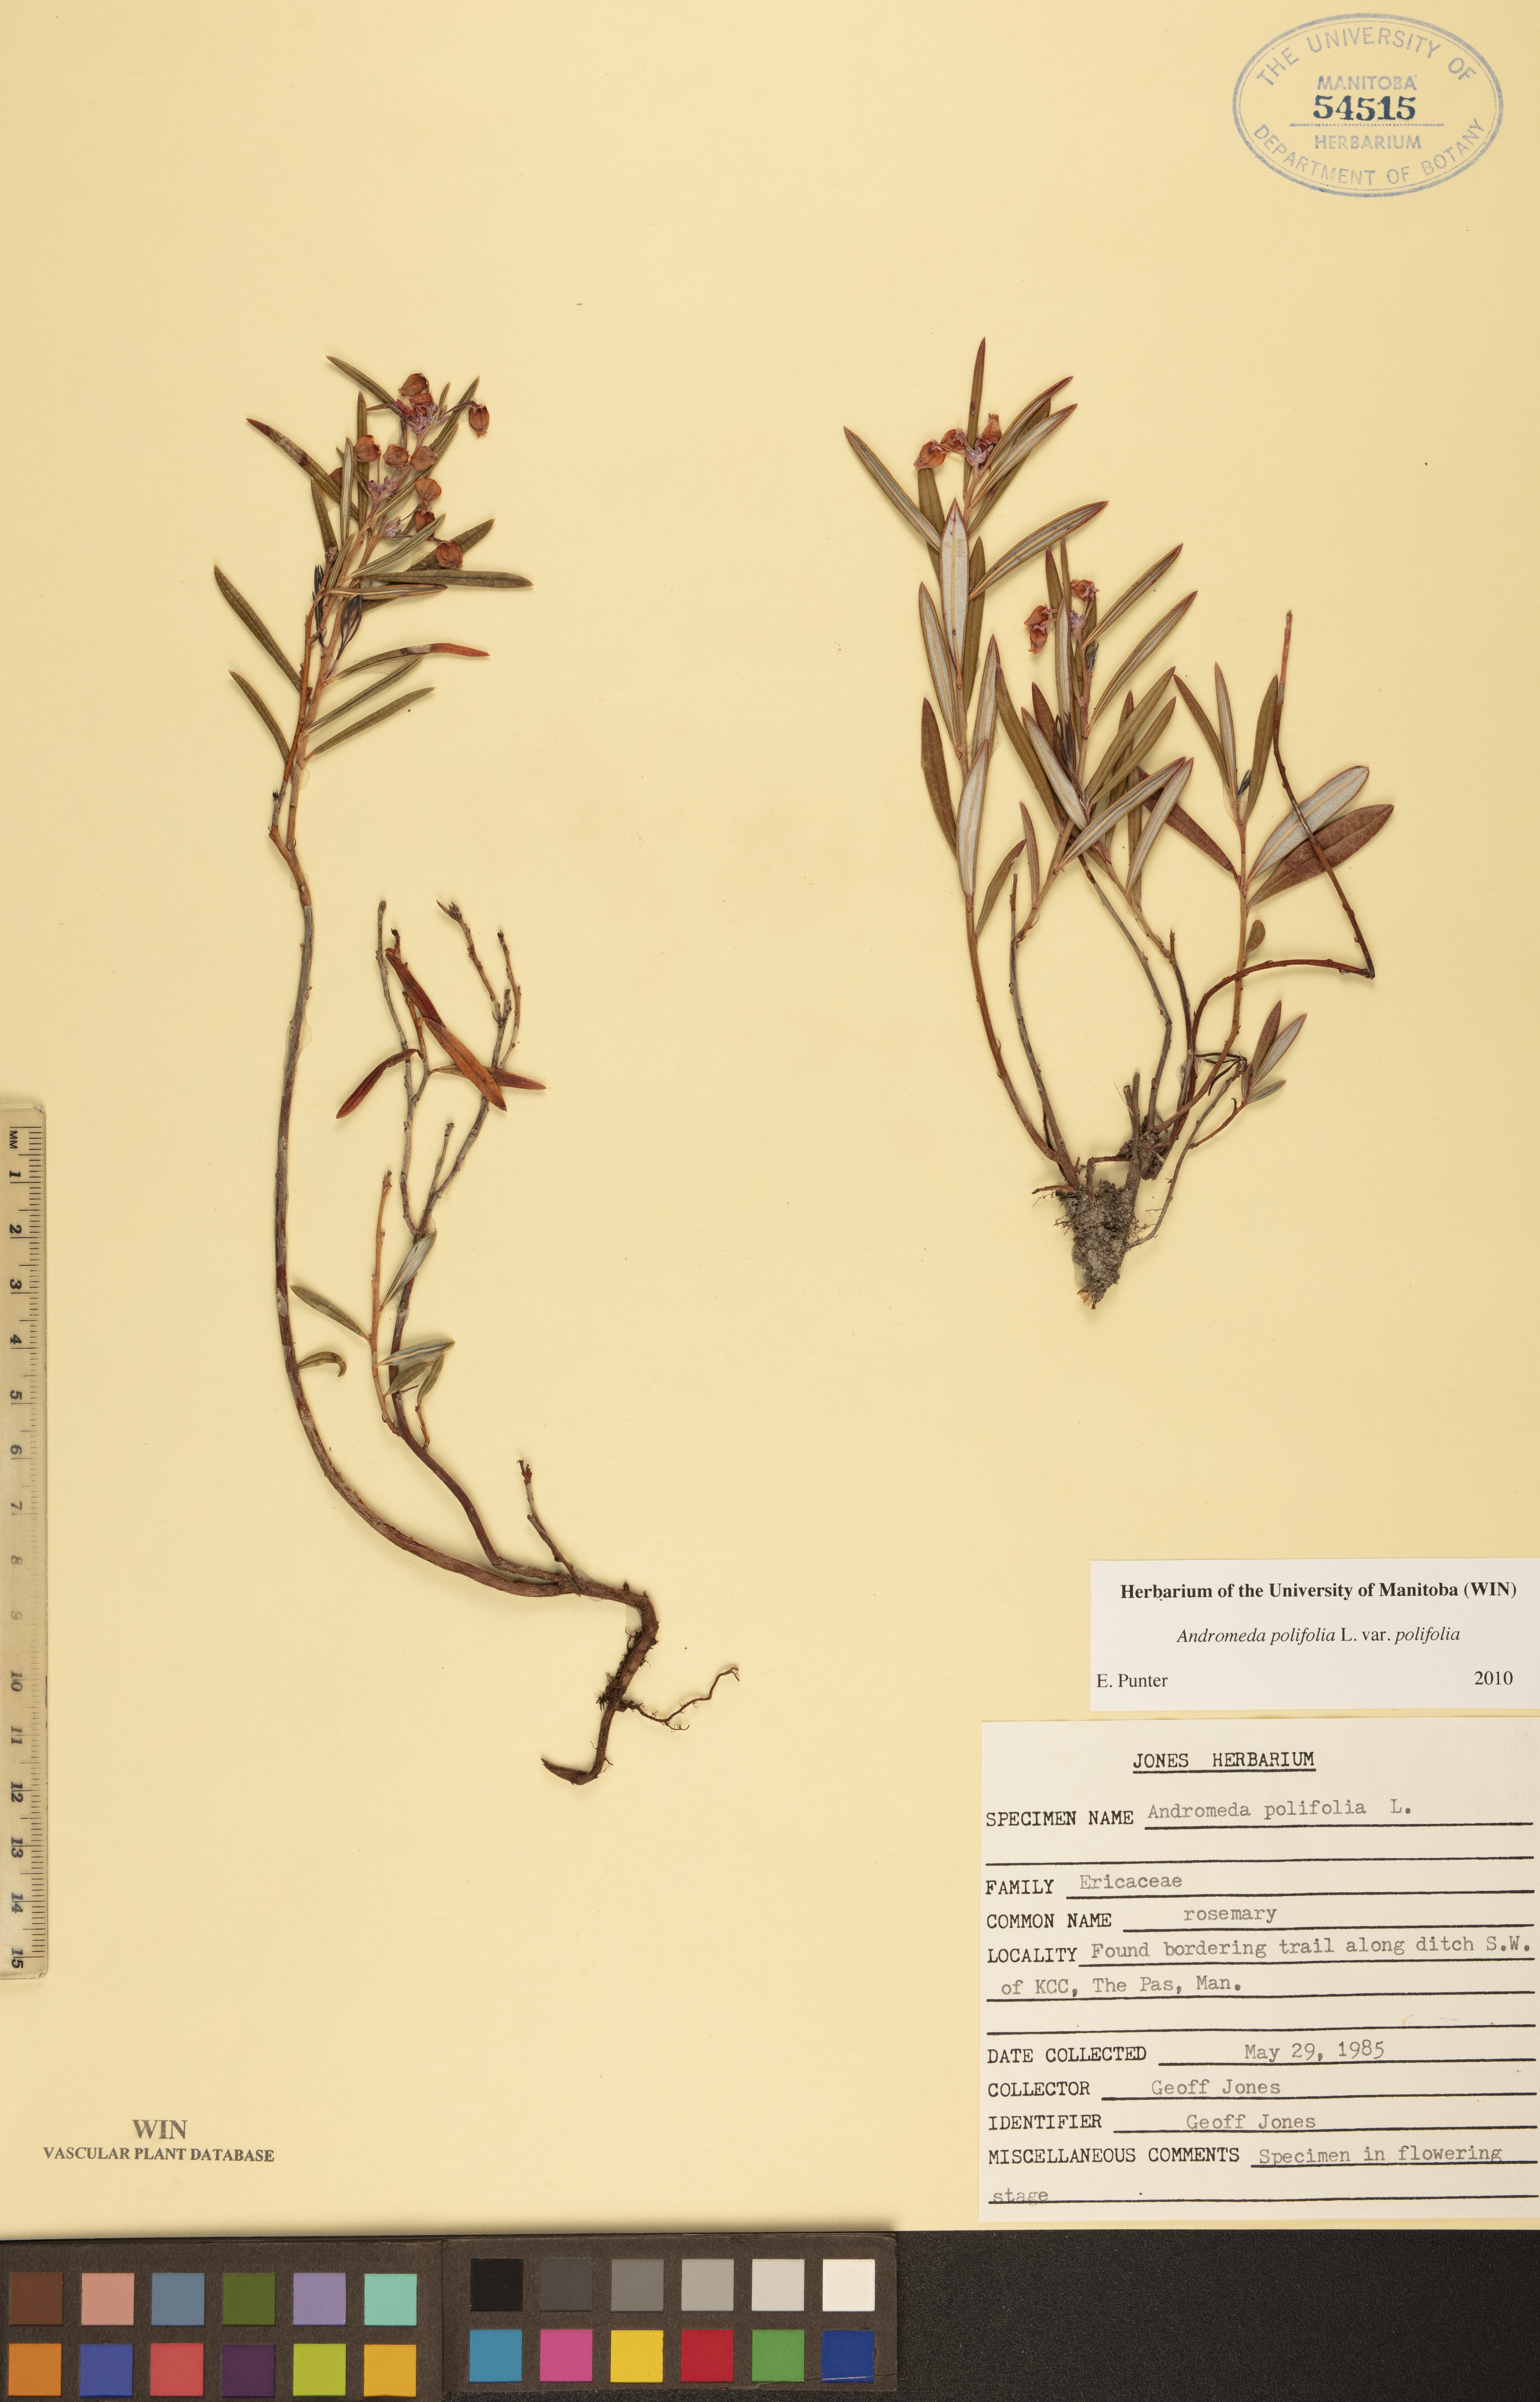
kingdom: Plantae
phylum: Tracheophyta
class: Magnoliopsida
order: Ericales
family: Ericaceae
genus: Andromeda
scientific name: Andromeda polifolia
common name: Bog-rosemary
